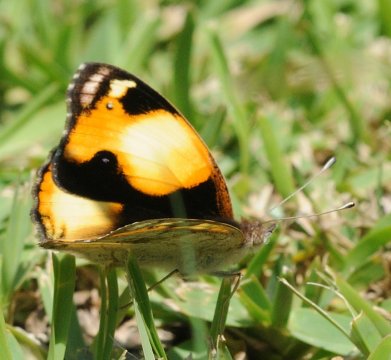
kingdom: Animalia
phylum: Arthropoda
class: Insecta
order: Lepidoptera
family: Nymphalidae
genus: Junonia
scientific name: Junonia hierta
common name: Yellow Pansy
